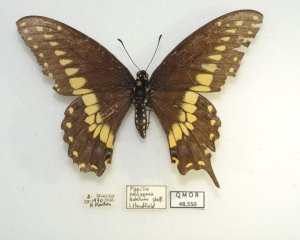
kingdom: Animalia
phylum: Arthropoda
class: Insecta
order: Lepidoptera
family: Papilionidae
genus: Papilio
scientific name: Papilio polyxenes
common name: Black Swallowtail
